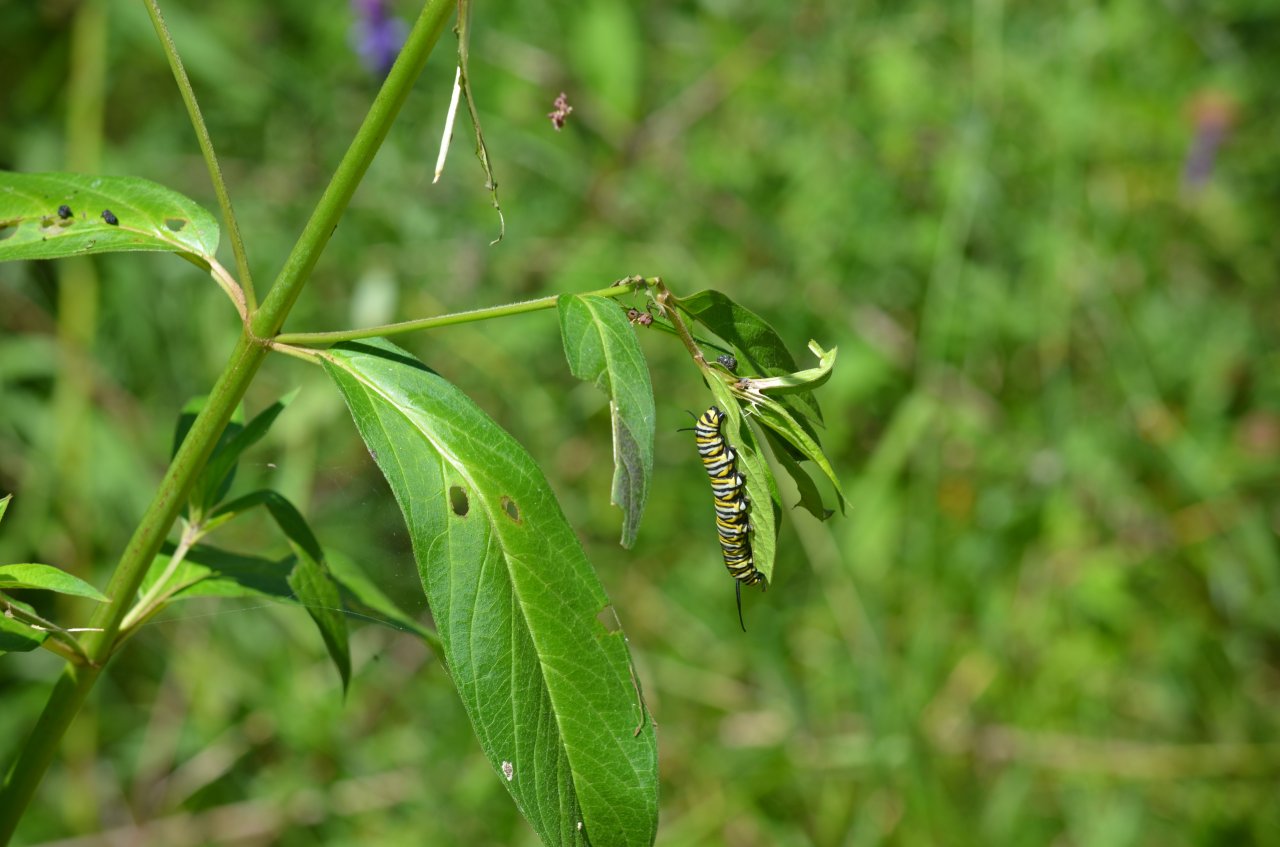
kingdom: Animalia
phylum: Arthropoda
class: Insecta
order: Lepidoptera
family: Nymphalidae
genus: Danaus
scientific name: Danaus plexippus
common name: Monarch
